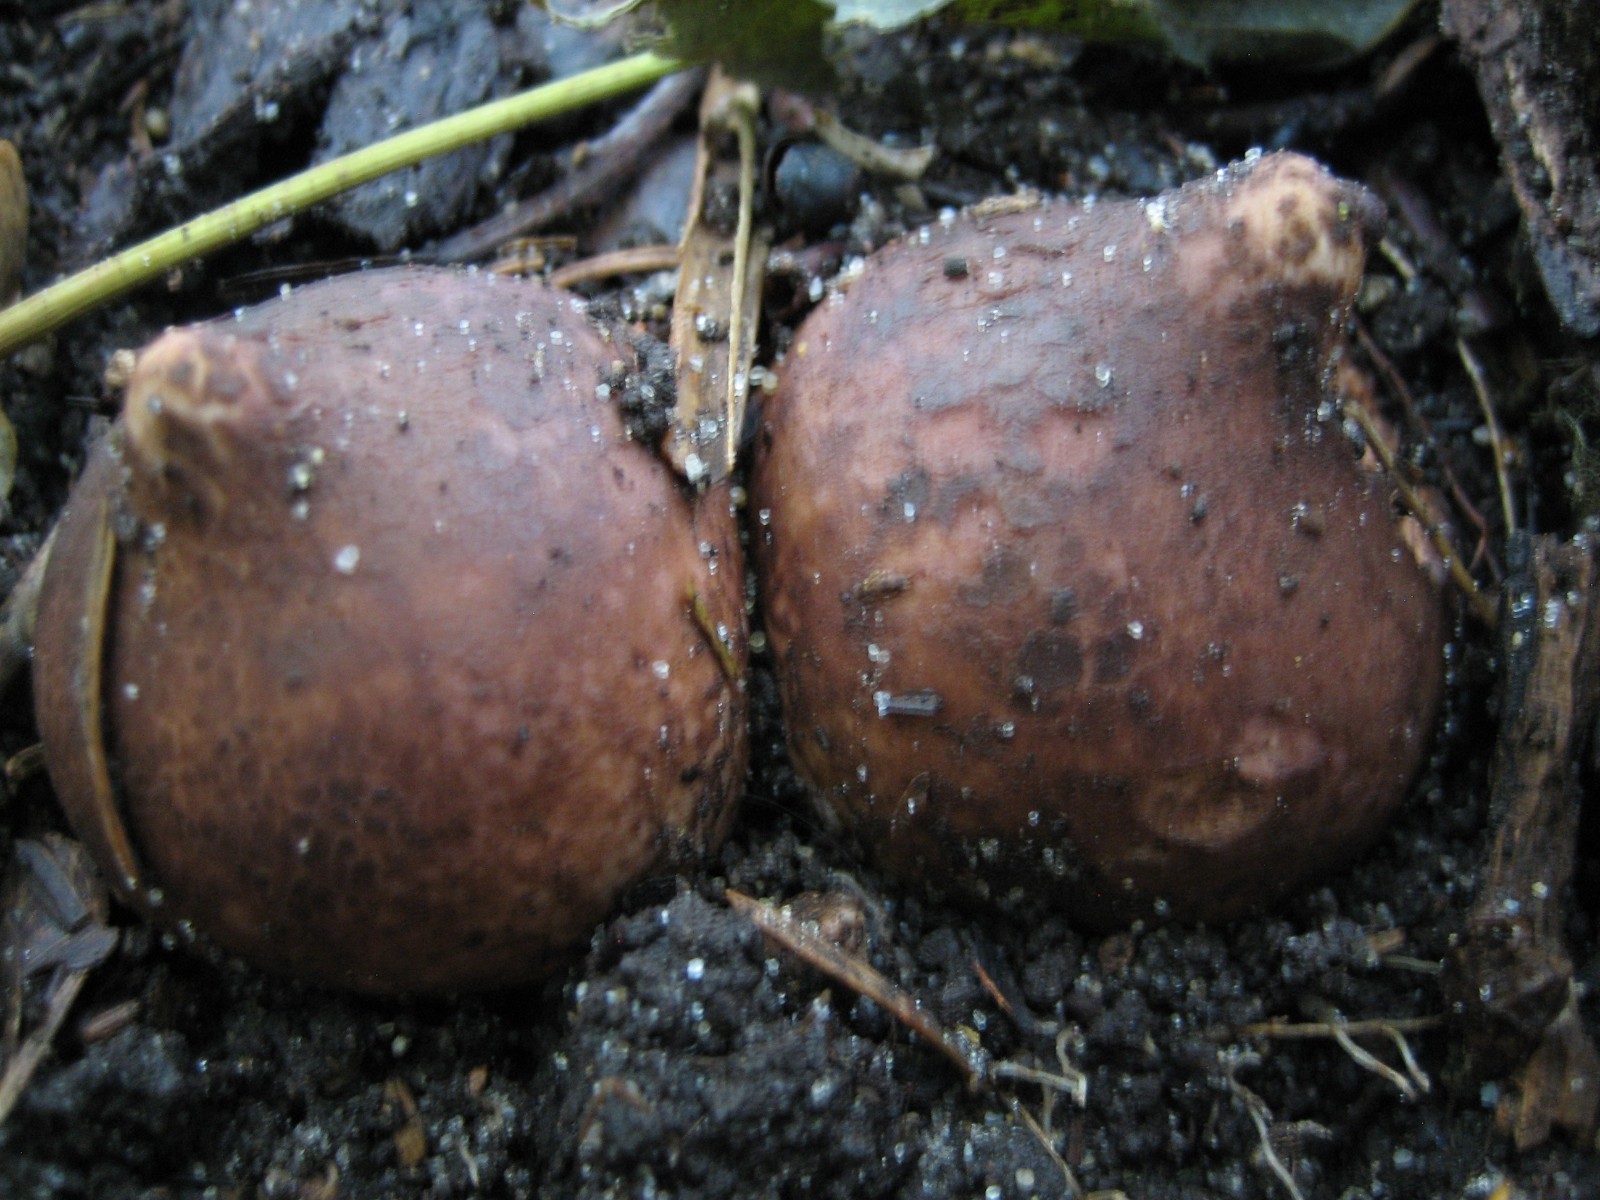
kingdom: Fungi
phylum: Basidiomycota
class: Agaricomycetes
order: Geastrales
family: Geastraceae
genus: Geastrum
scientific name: Geastrum michelianum
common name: kødet stjernebold
